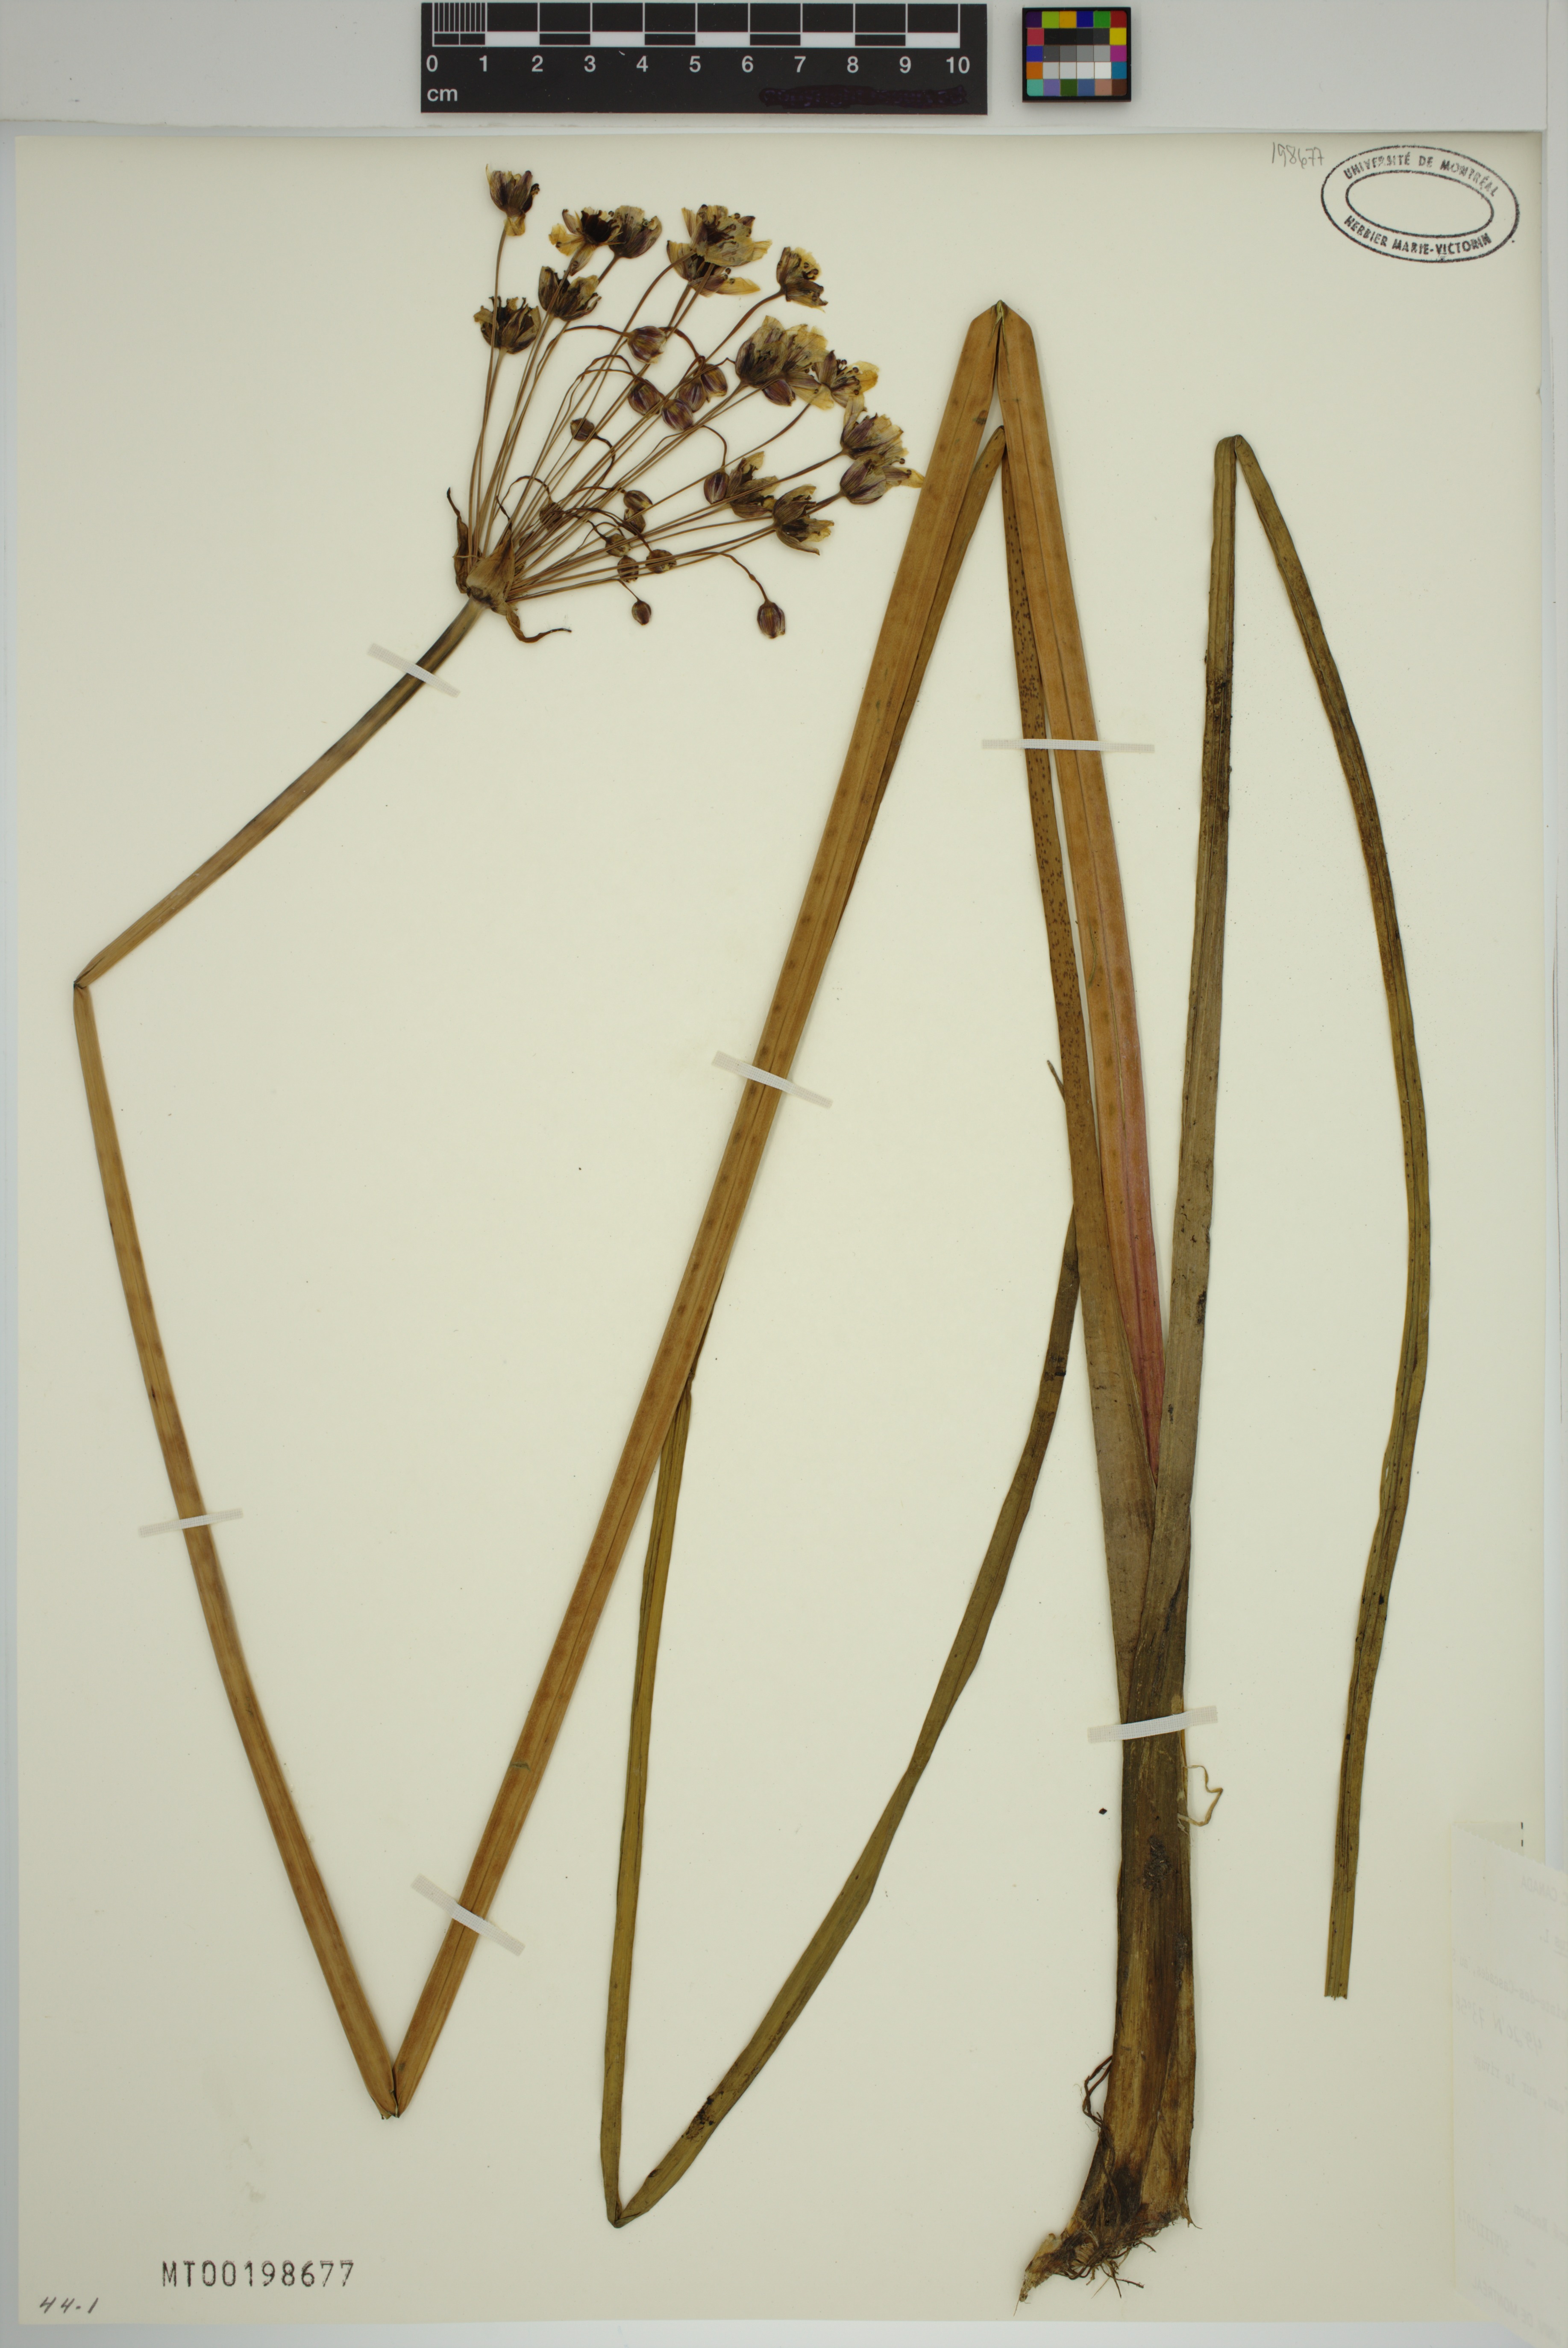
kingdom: Plantae
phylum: Tracheophyta
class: Liliopsida
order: Alismatales
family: Butomaceae
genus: Butomus
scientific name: Butomus umbellatus
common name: Flowering-rush
